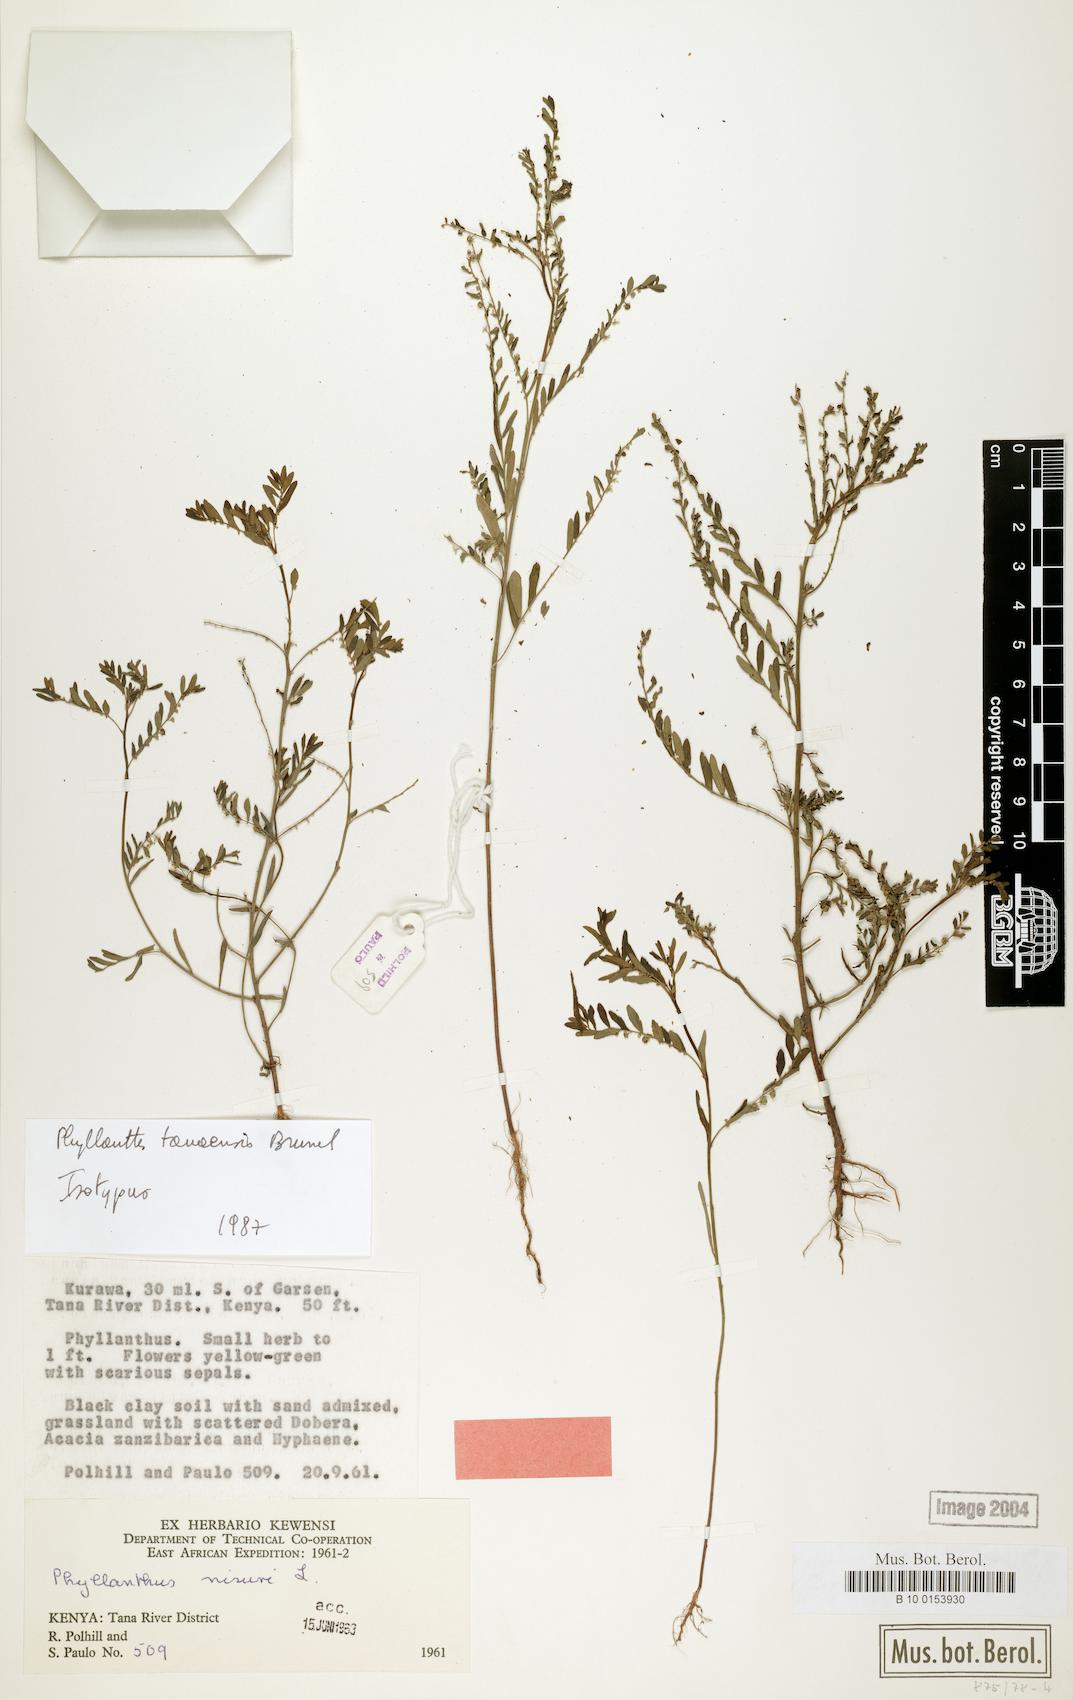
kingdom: Plantae
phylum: Tracheophyta
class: Magnoliopsida
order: Malpighiales
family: Phyllanthaceae
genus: Phyllanthus
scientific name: Phyllanthus tanaensis
